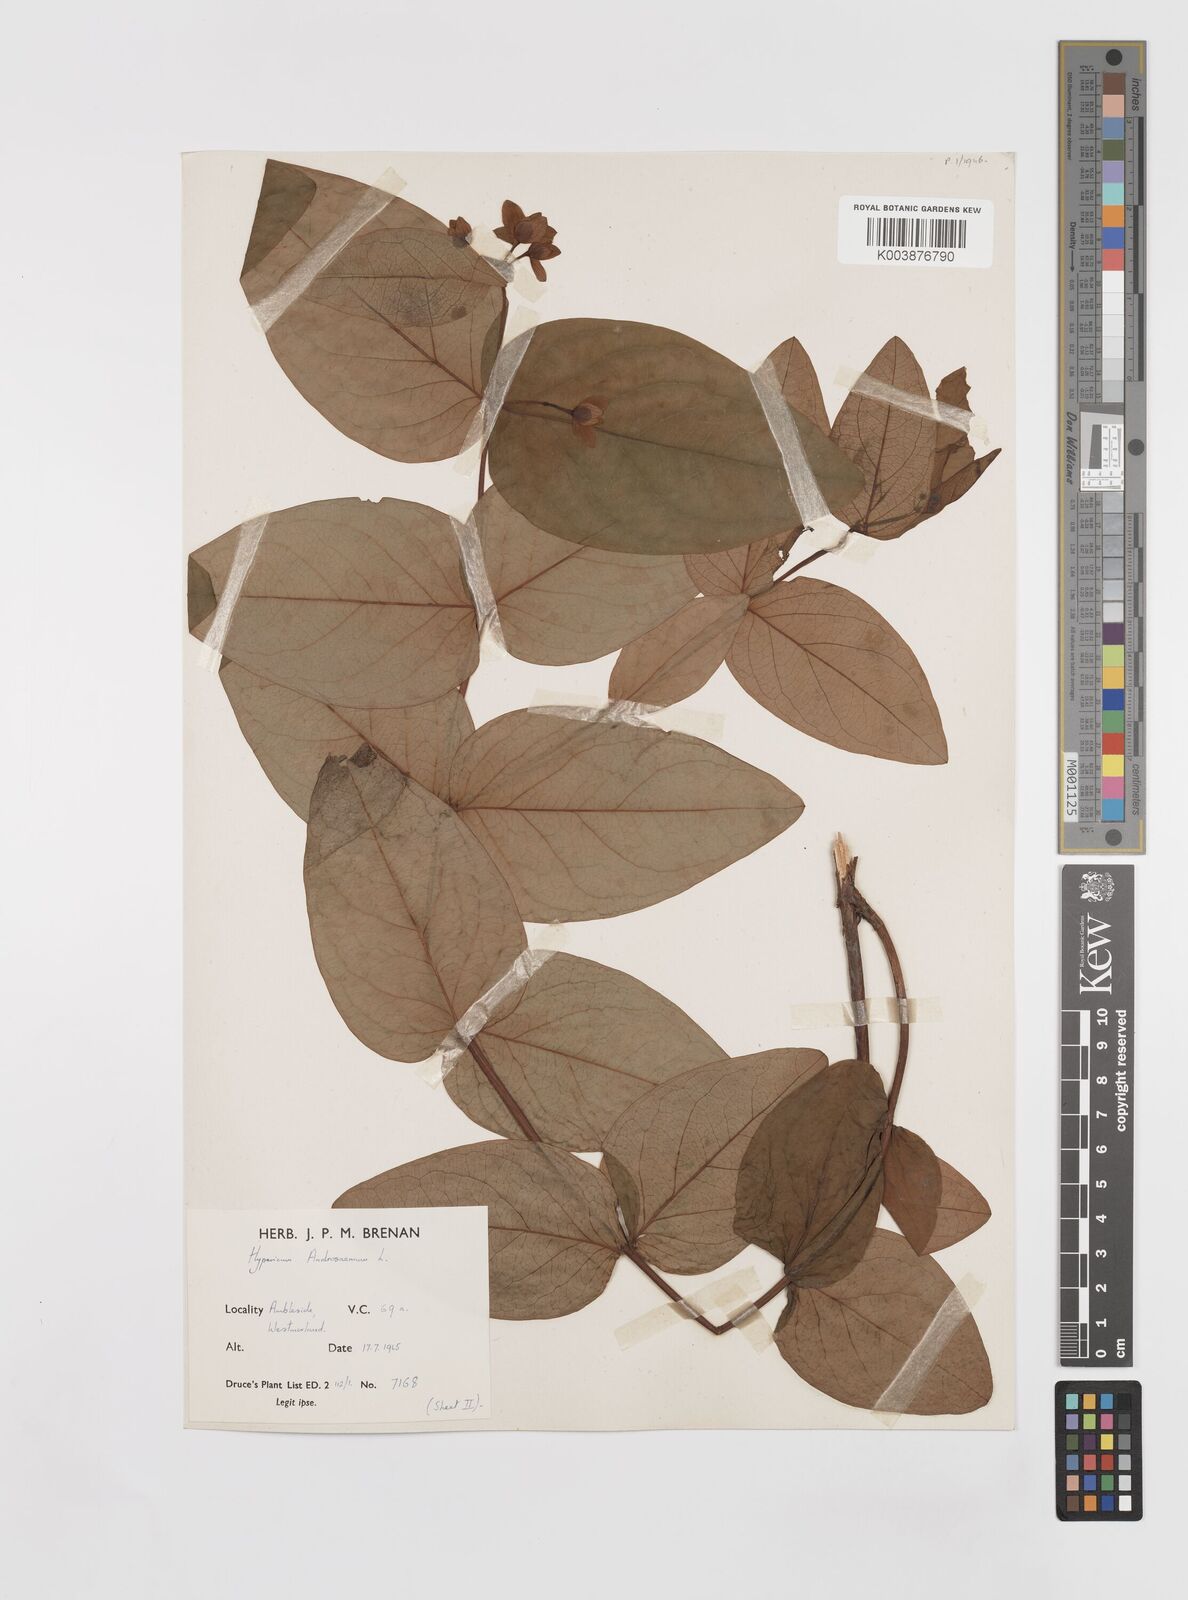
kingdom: Plantae
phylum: Tracheophyta
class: Magnoliopsida
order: Malpighiales
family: Hypericaceae
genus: Hypericum
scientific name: Hypericum androsaemum
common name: Sweet-amber
